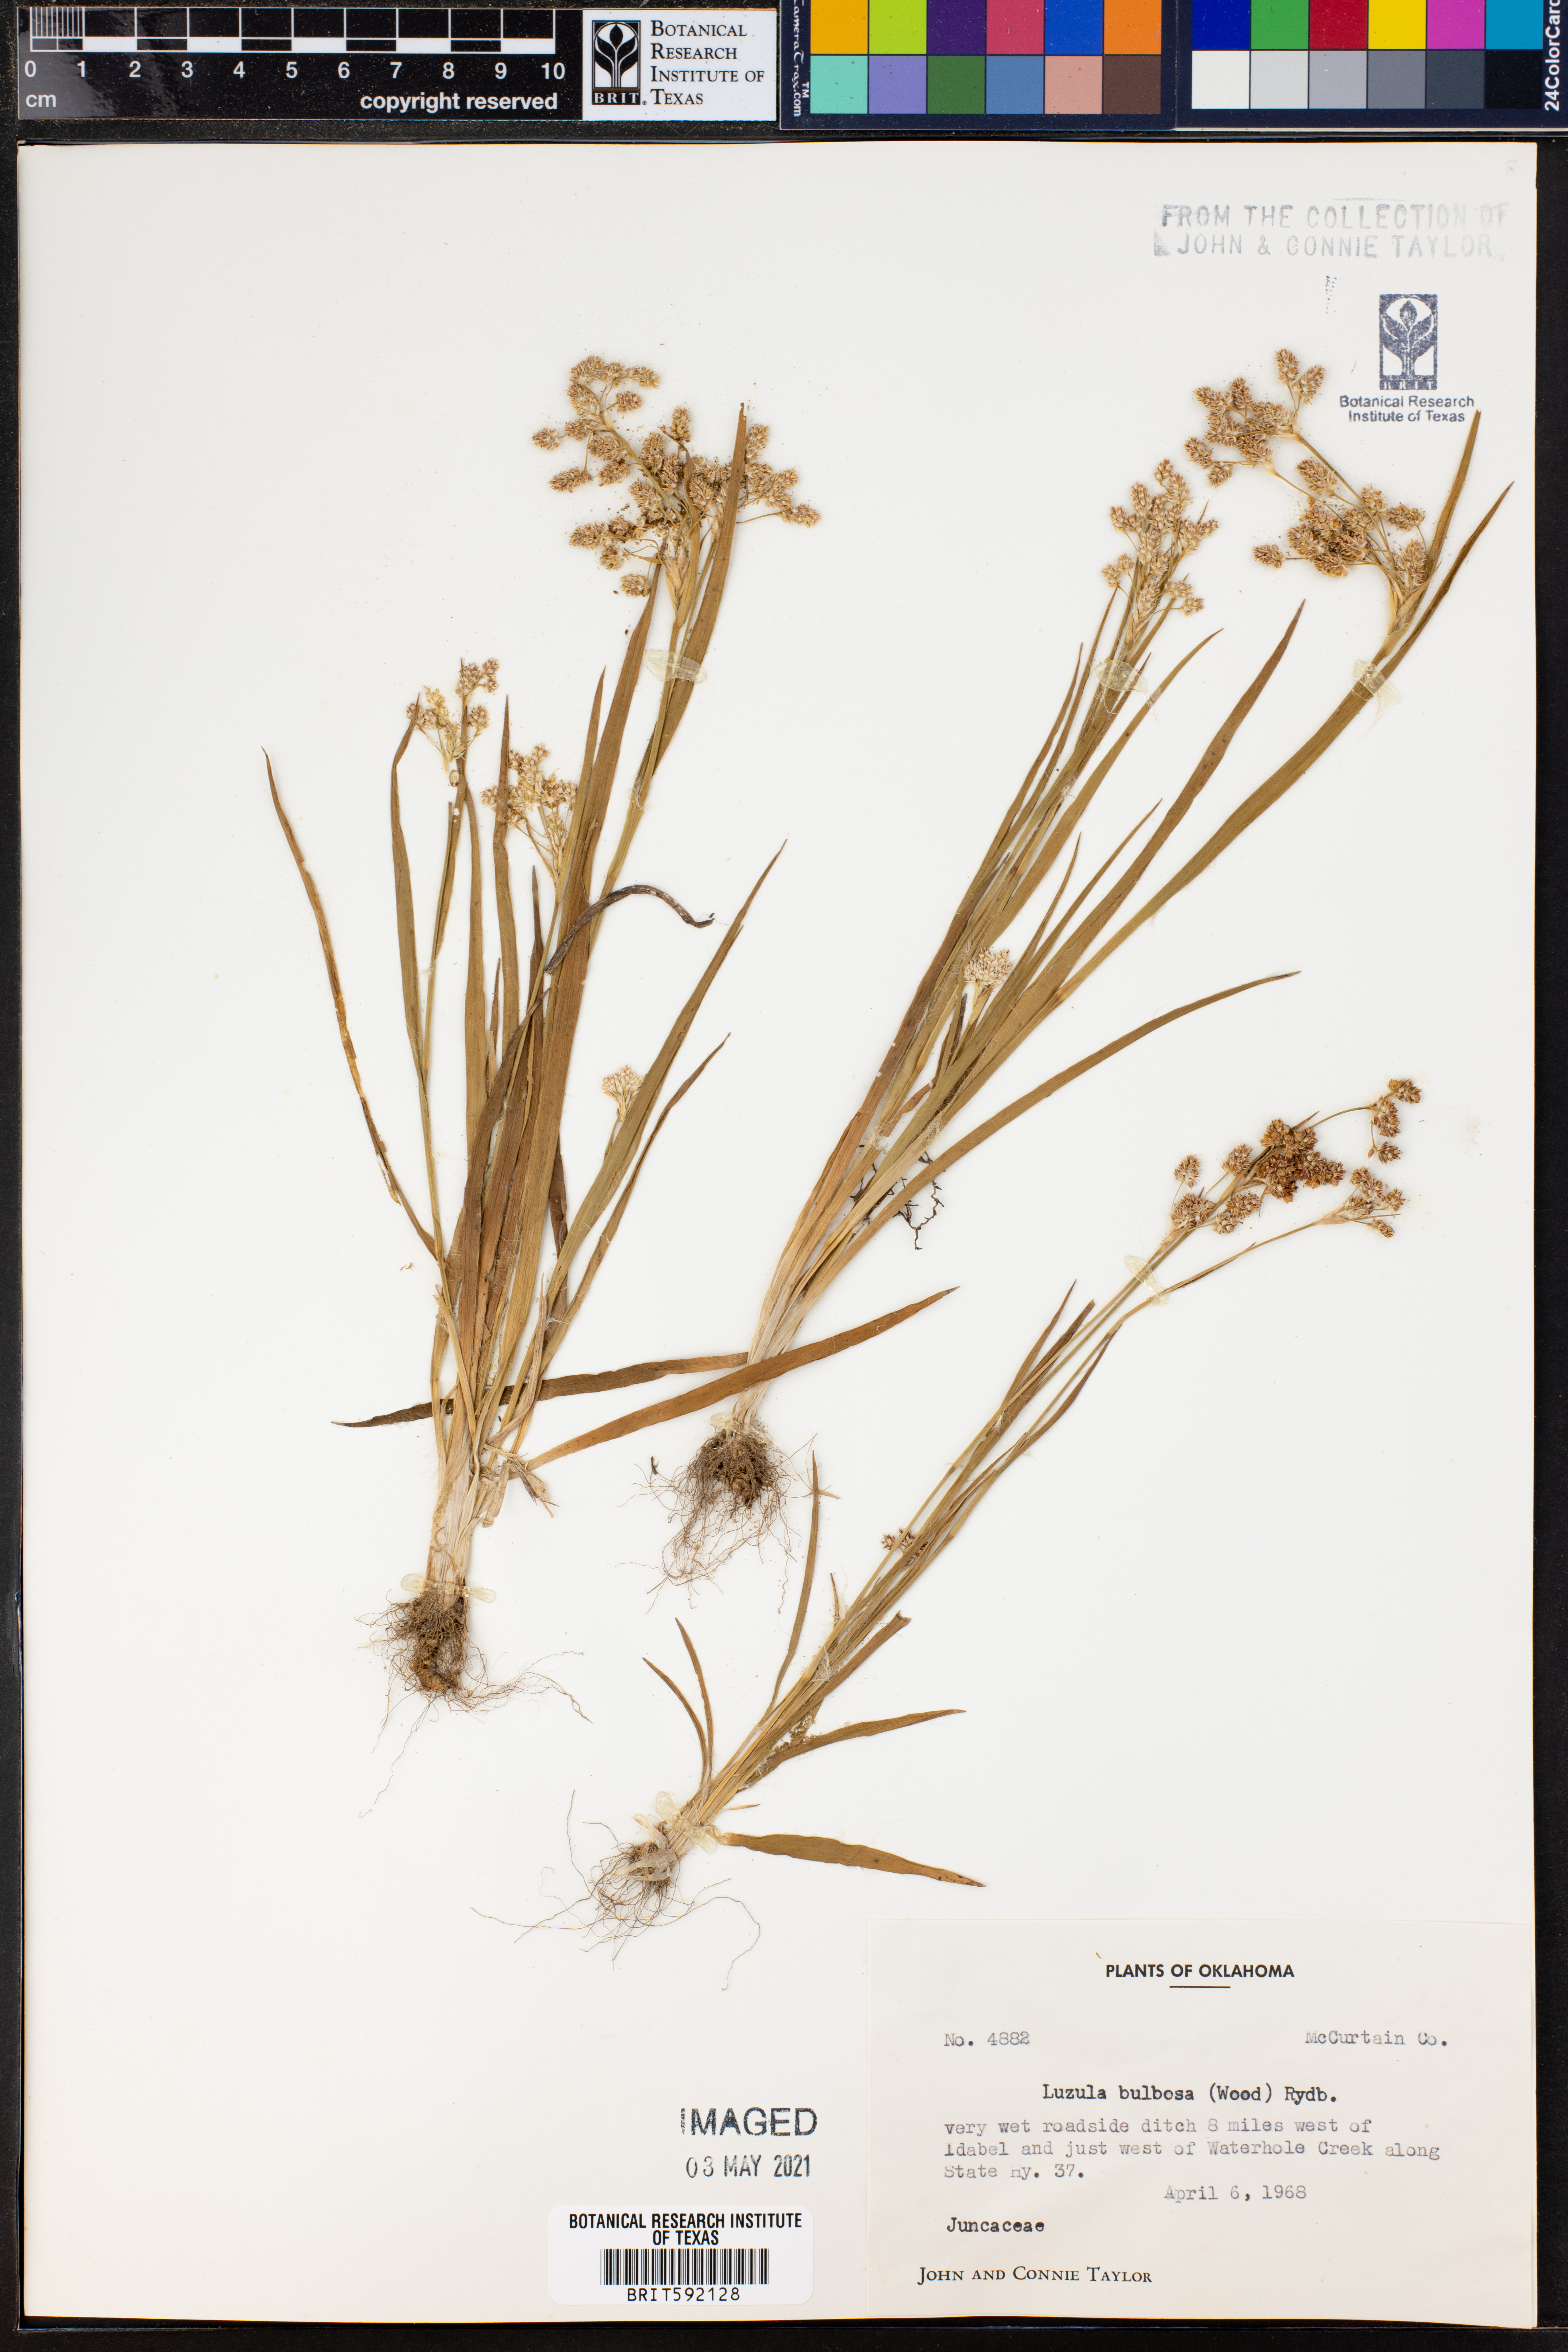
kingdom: Plantae
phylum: Tracheophyta
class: Liliopsida
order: Poales
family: Juncaceae
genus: Luzula
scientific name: Luzula bulbosa
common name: Bulbous woodrush
